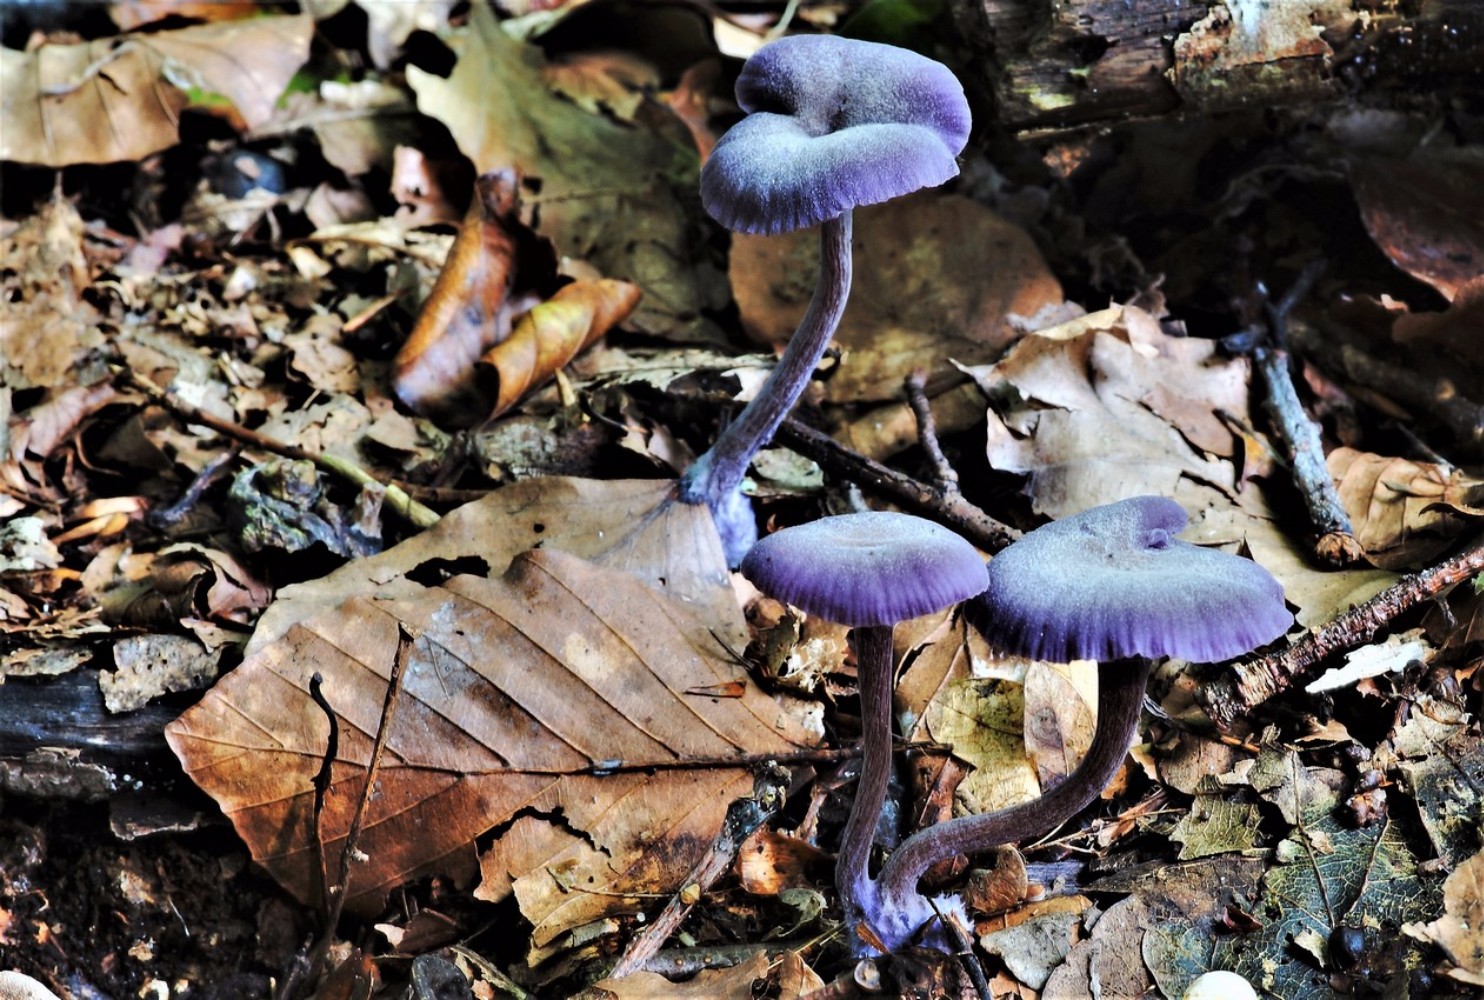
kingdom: Fungi
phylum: Basidiomycota
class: Agaricomycetes
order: Agaricales
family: Hydnangiaceae
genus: Laccaria
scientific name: Laccaria amethystina
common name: violet ametysthat
